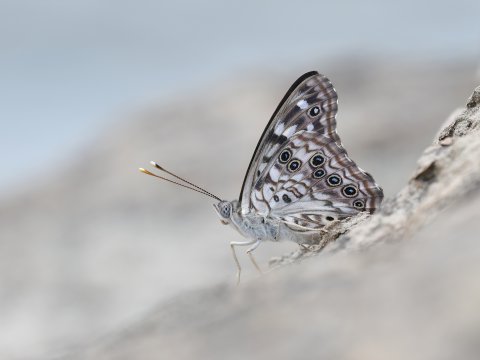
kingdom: Animalia
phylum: Arthropoda
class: Insecta
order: Lepidoptera
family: Nymphalidae
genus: Asterocampa
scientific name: Asterocampa celtis
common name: Hackberry Emperor
